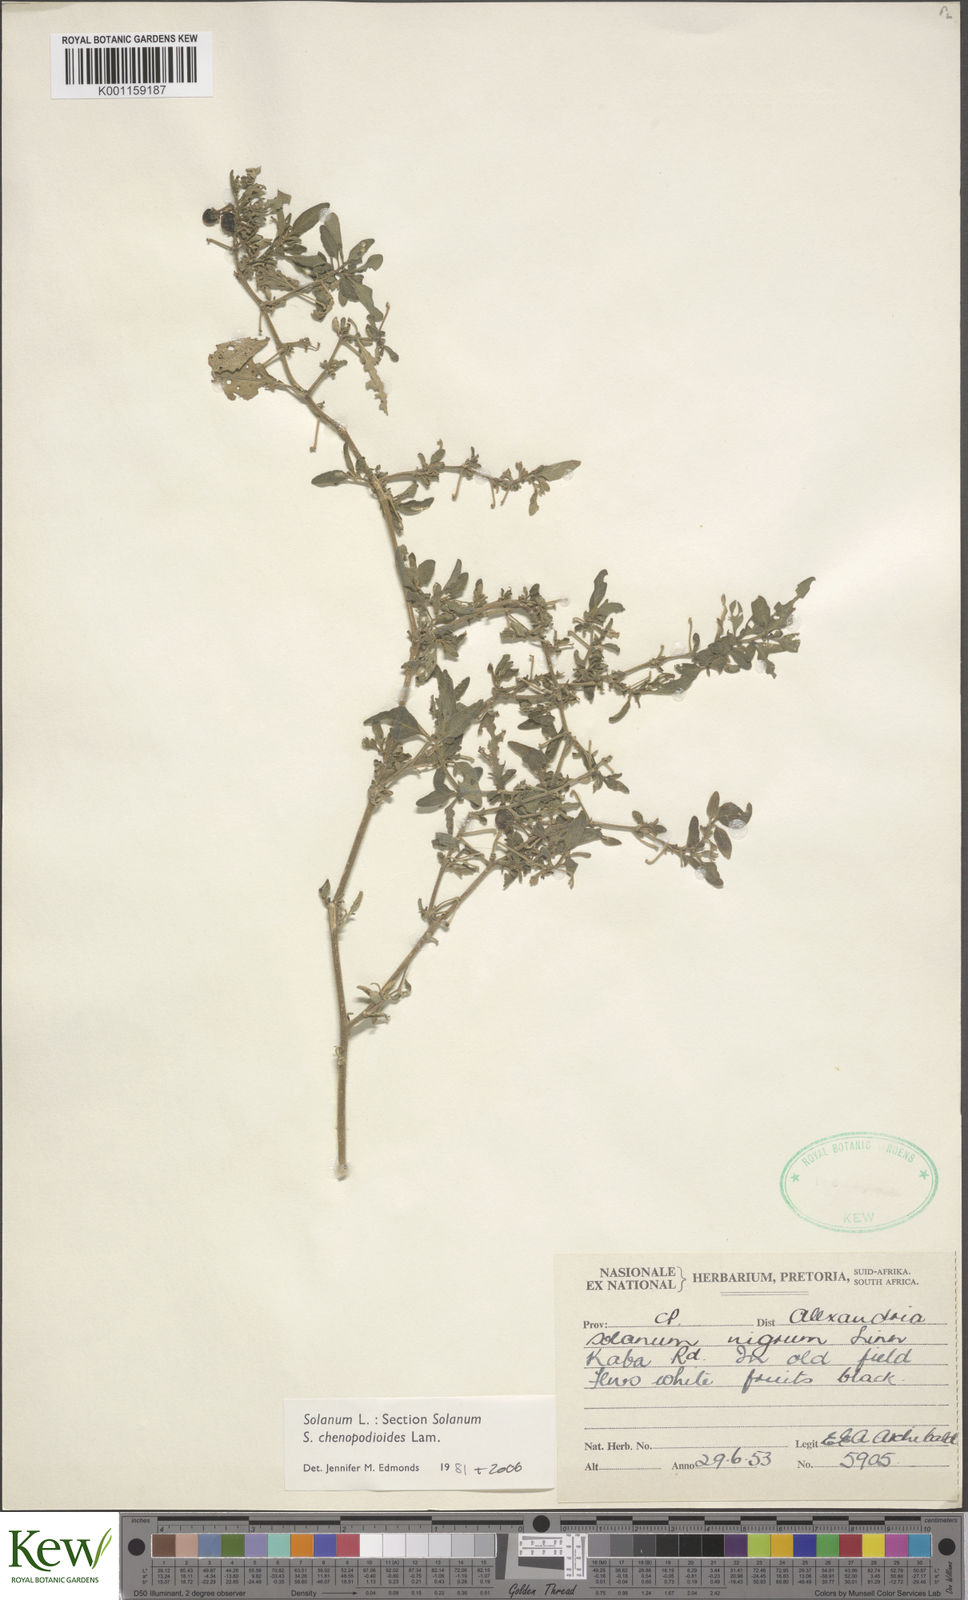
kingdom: Plantae
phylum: Tracheophyta
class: Magnoliopsida
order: Solanales
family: Solanaceae
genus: Solanum
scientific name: Solanum chenopodioides
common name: Tall nightshade
